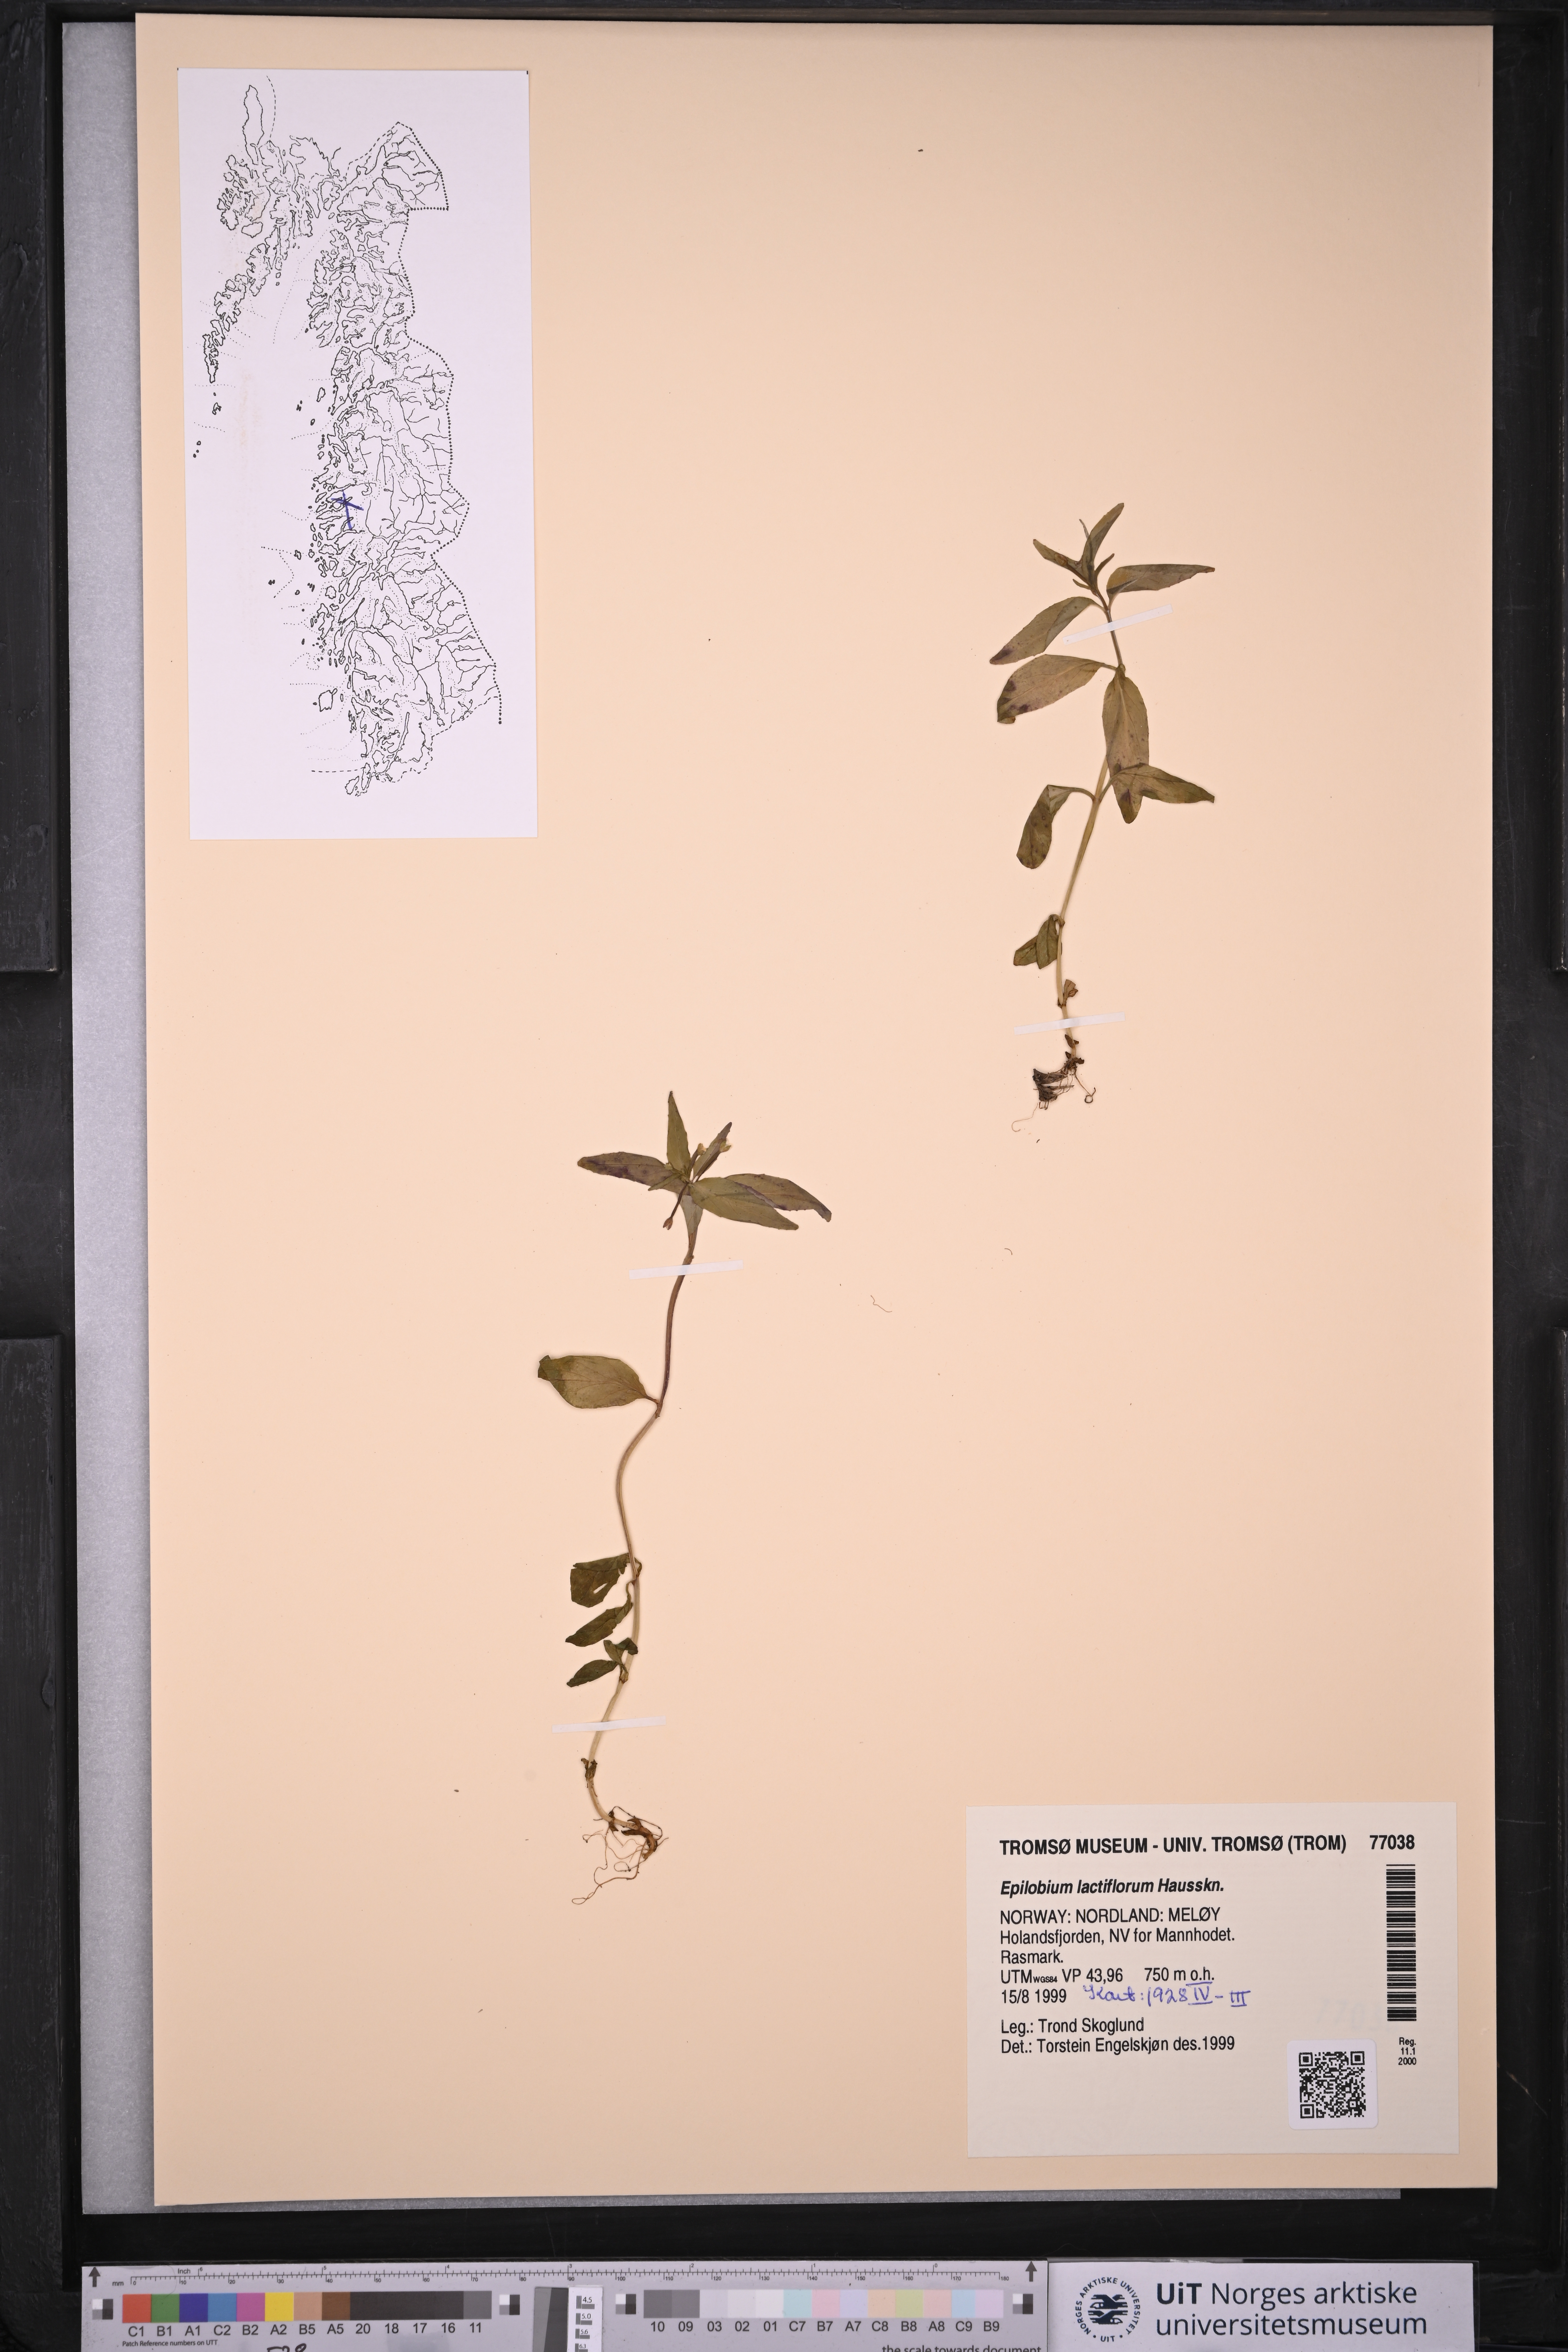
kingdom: Plantae
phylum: Tracheophyta
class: Magnoliopsida
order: Myrtales
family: Onagraceae
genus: Epilobium
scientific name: Epilobium lactiflorum
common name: Milkflower willowherb
